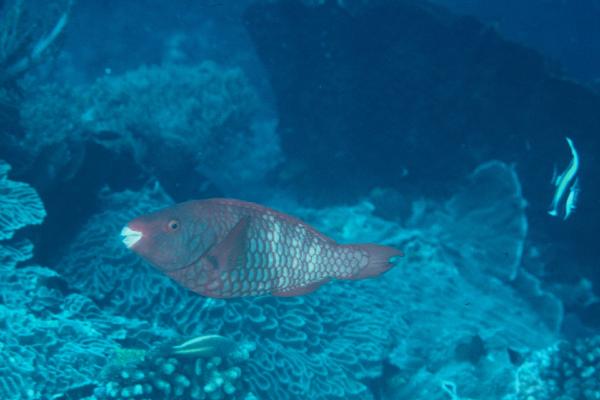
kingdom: Animalia
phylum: Chordata
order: Perciformes
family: Scaridae
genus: Scarus
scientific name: Scarus xanthopleura
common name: Red parrotfish
